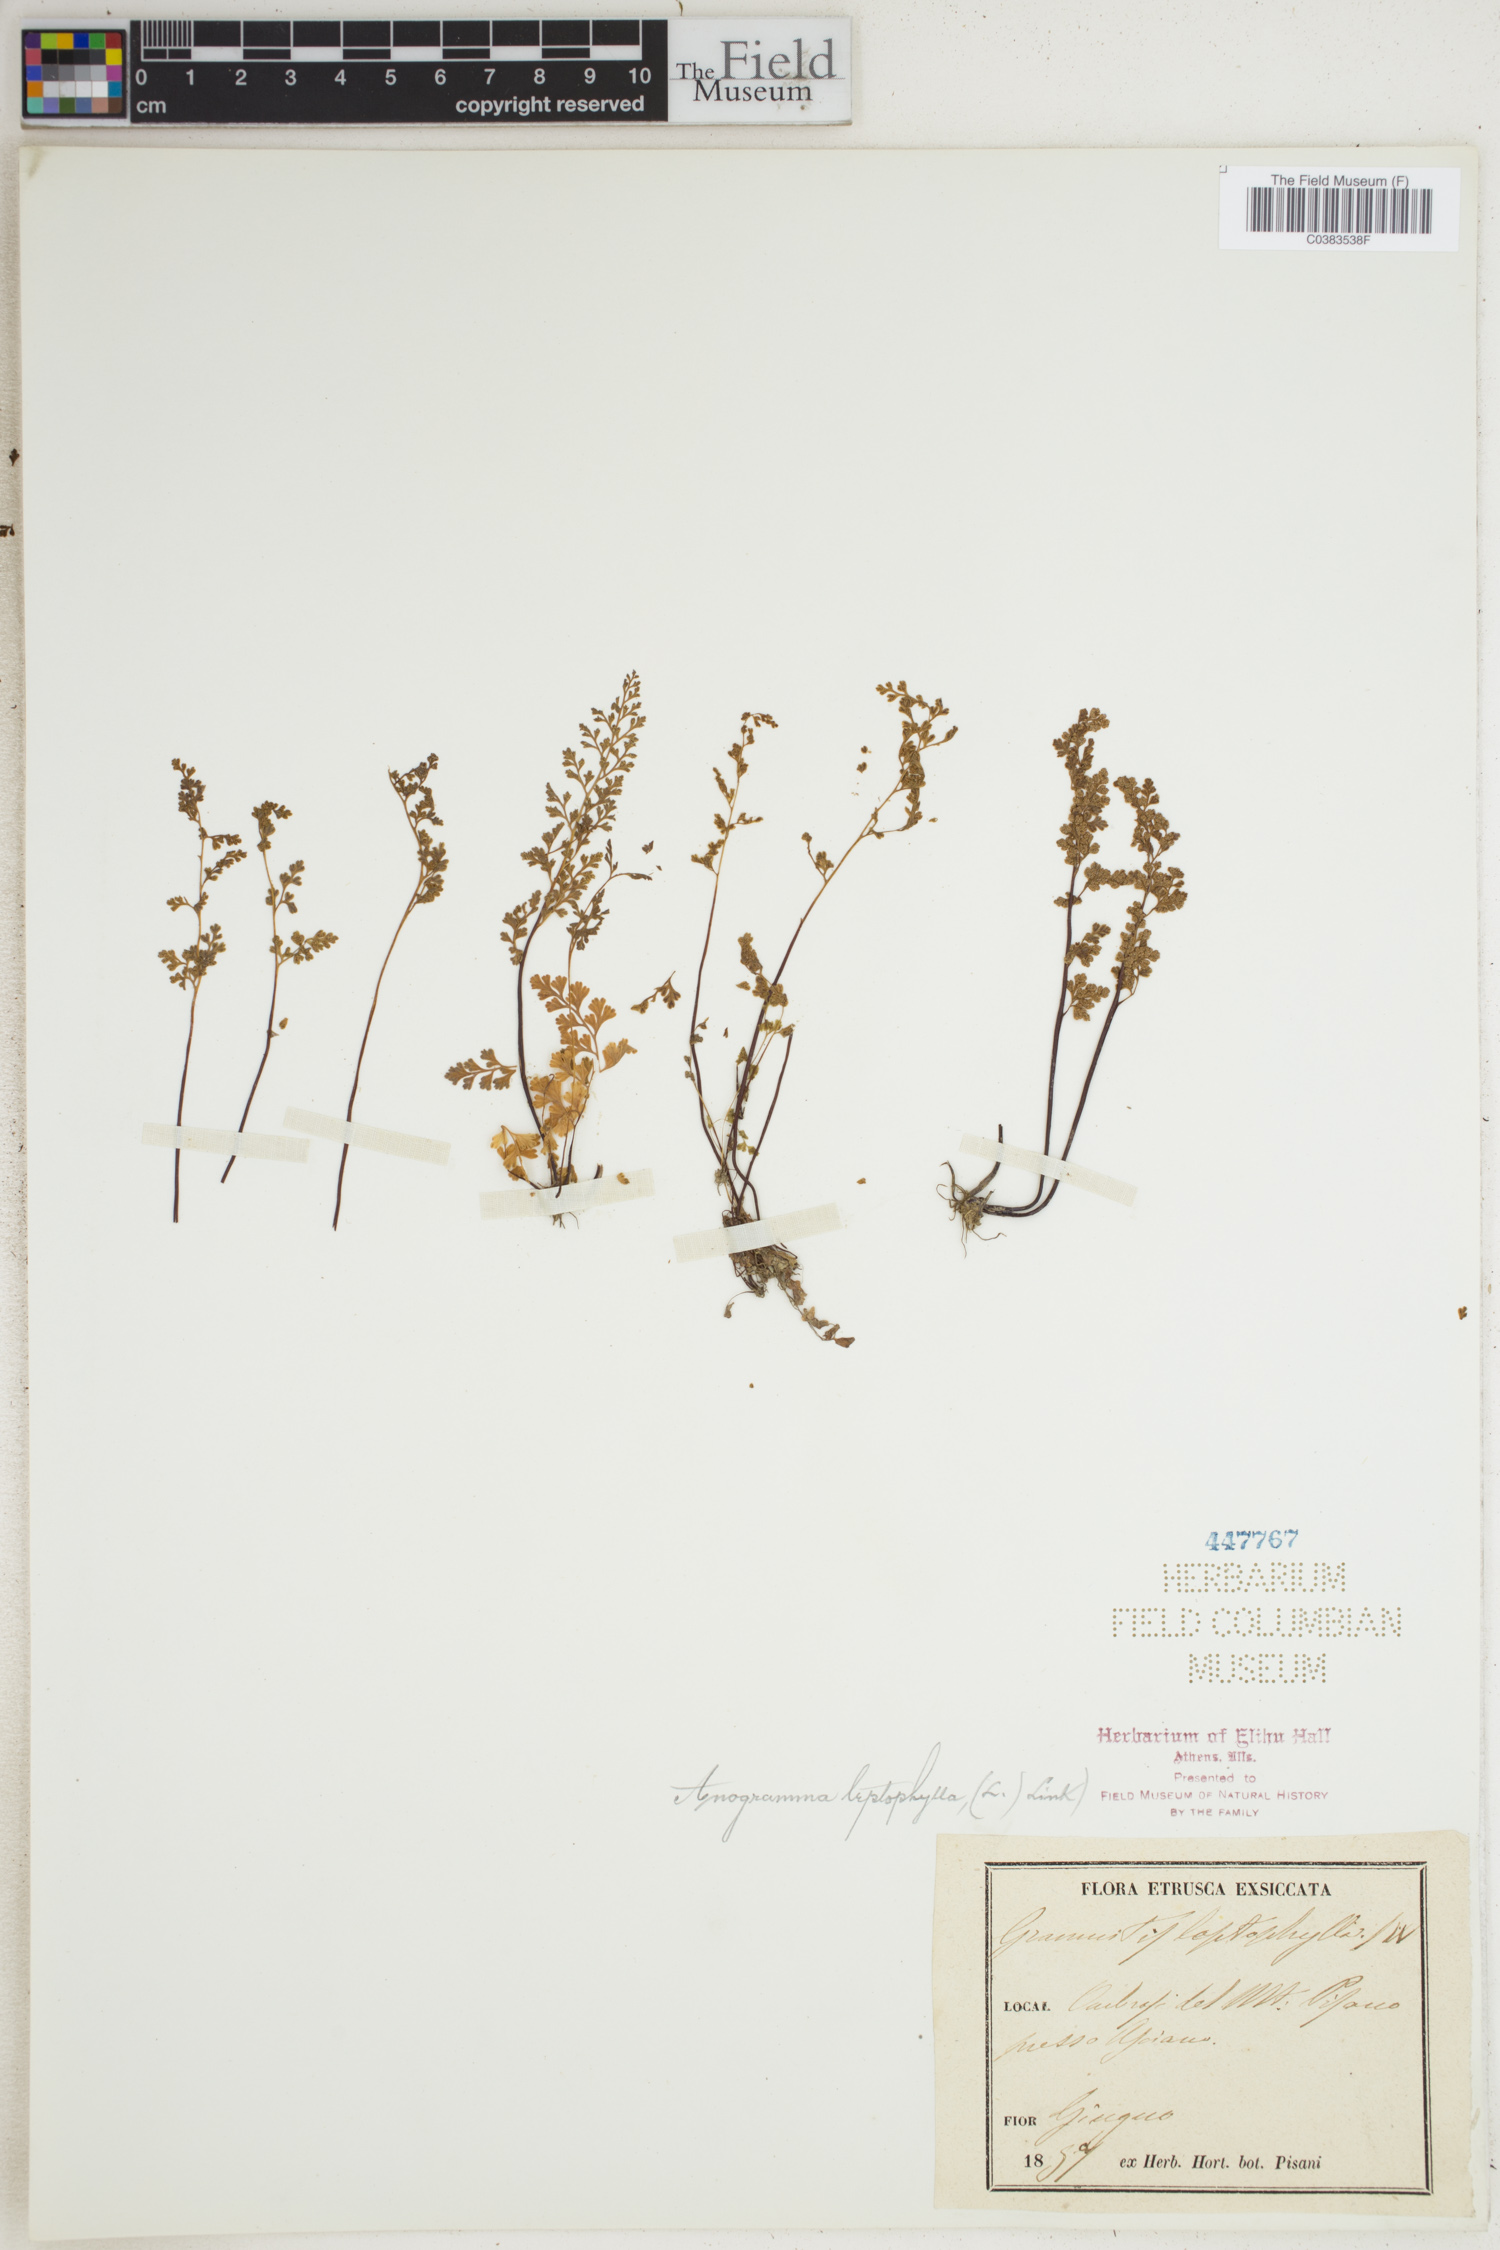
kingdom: Plantae
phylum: Tracheophyta
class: Polypodiopsida
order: Polypodiales
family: Pteridaceae
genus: Anogramma
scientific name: Anogramma leptophylla
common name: Jersey fern
